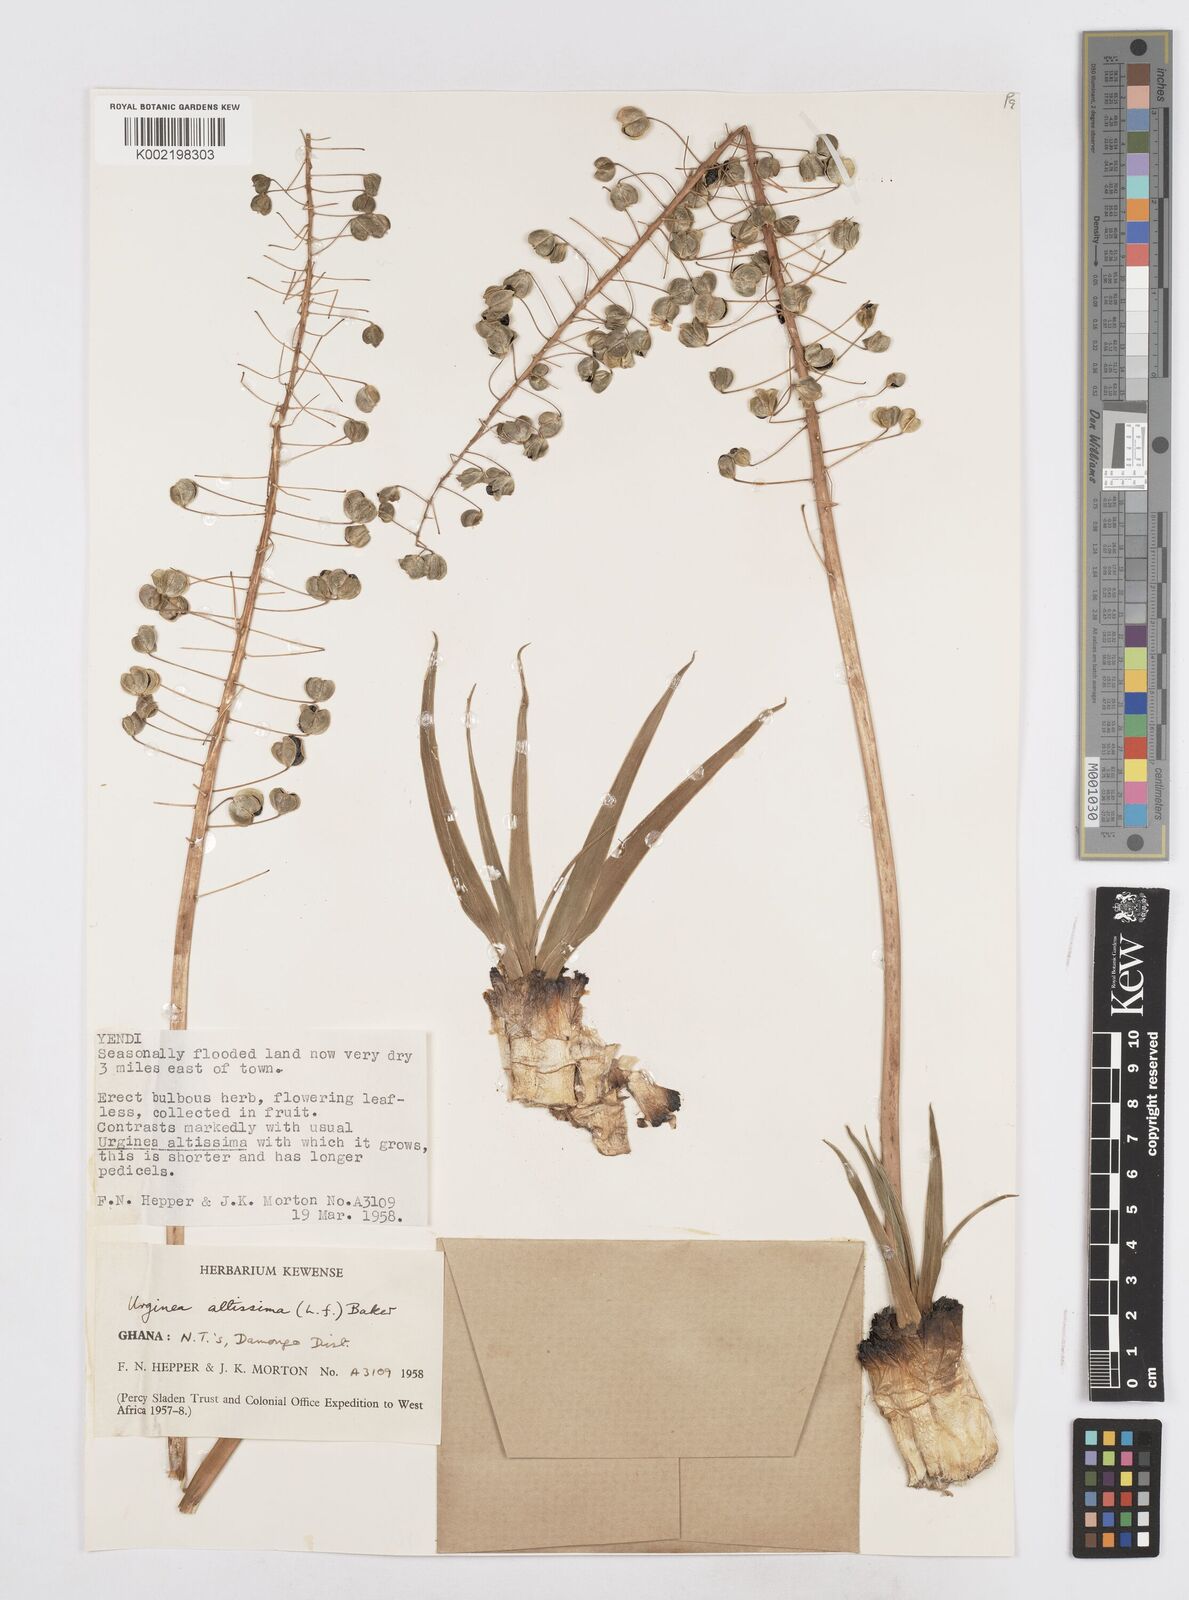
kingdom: Plantae
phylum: Tracheophyta
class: Liliopsida
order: Asparagales
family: Asparagaceae
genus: Drimia
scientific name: Drimia altissima
